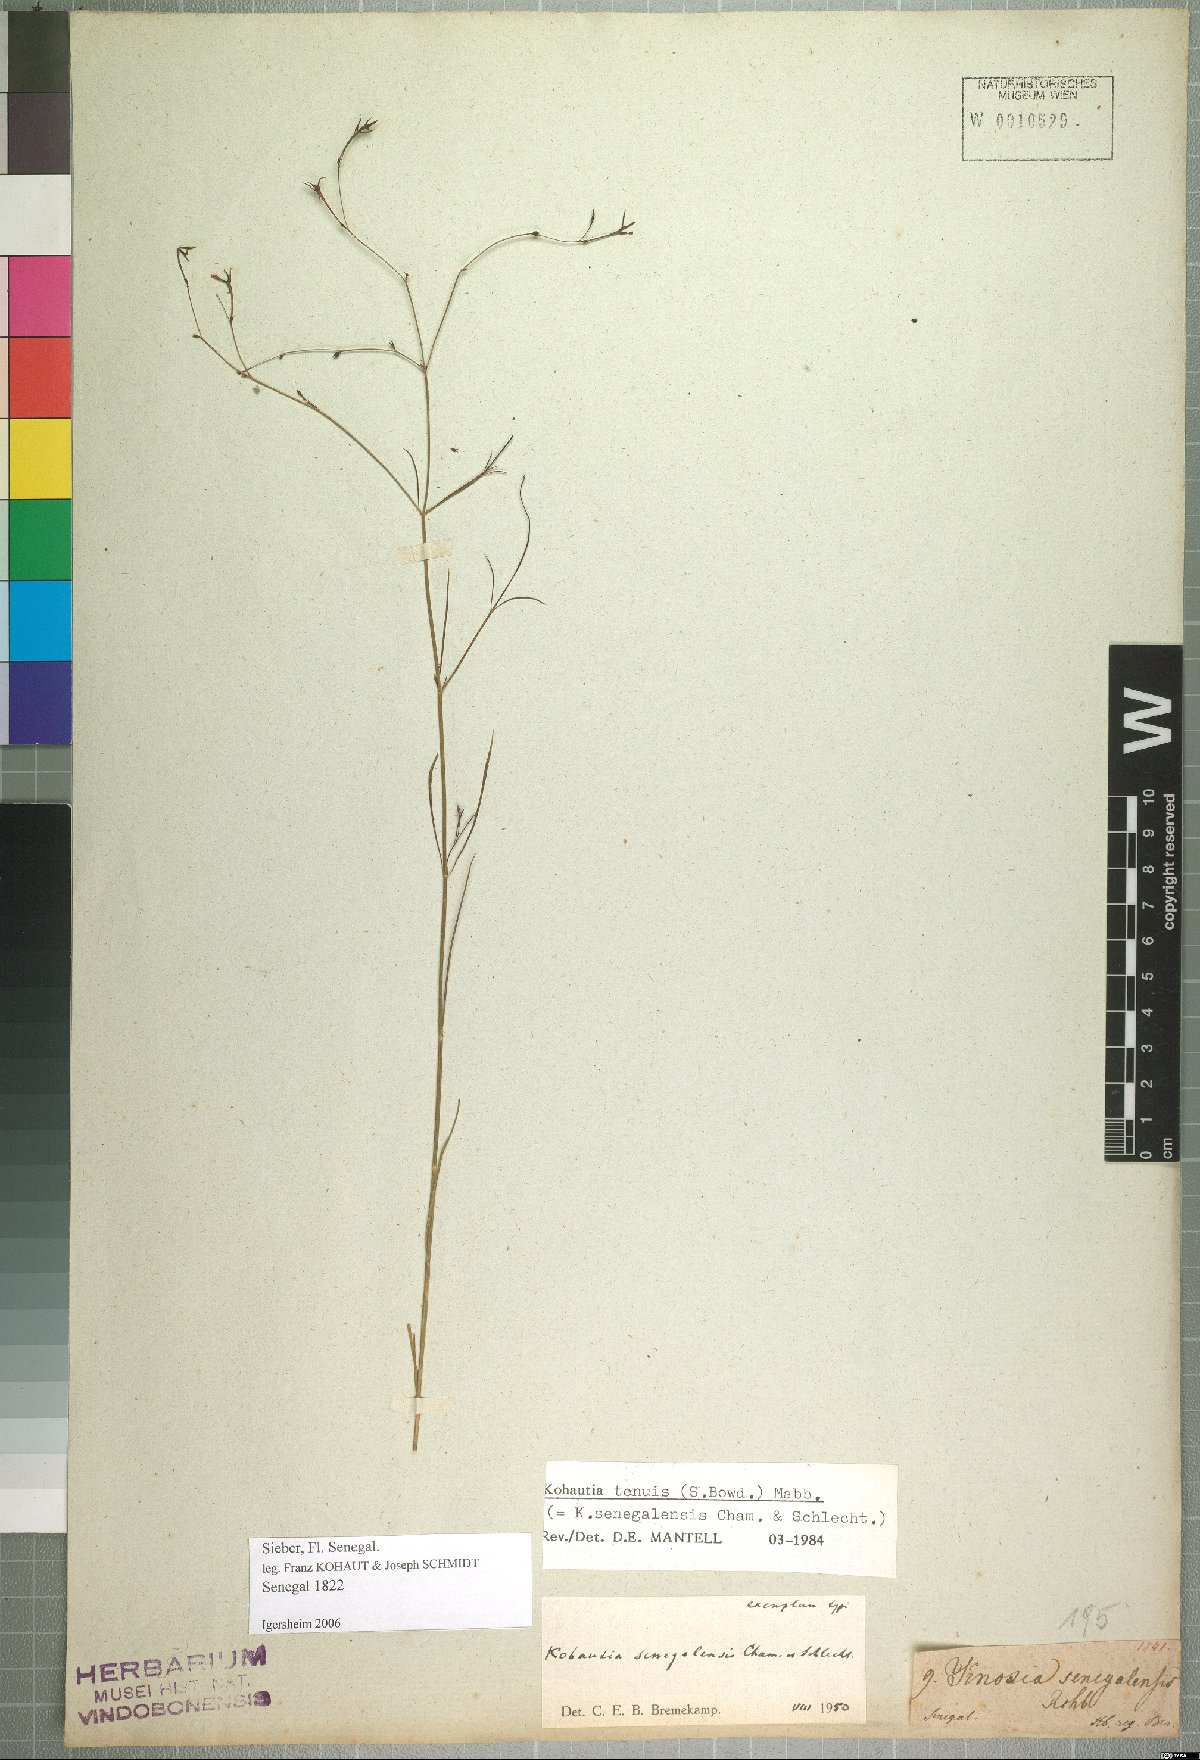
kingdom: Plantae
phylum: Tracheophyta
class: Magnoliopsida
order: Gentianales
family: Rubiaceae
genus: Kohautia
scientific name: Kohautia tenuis
